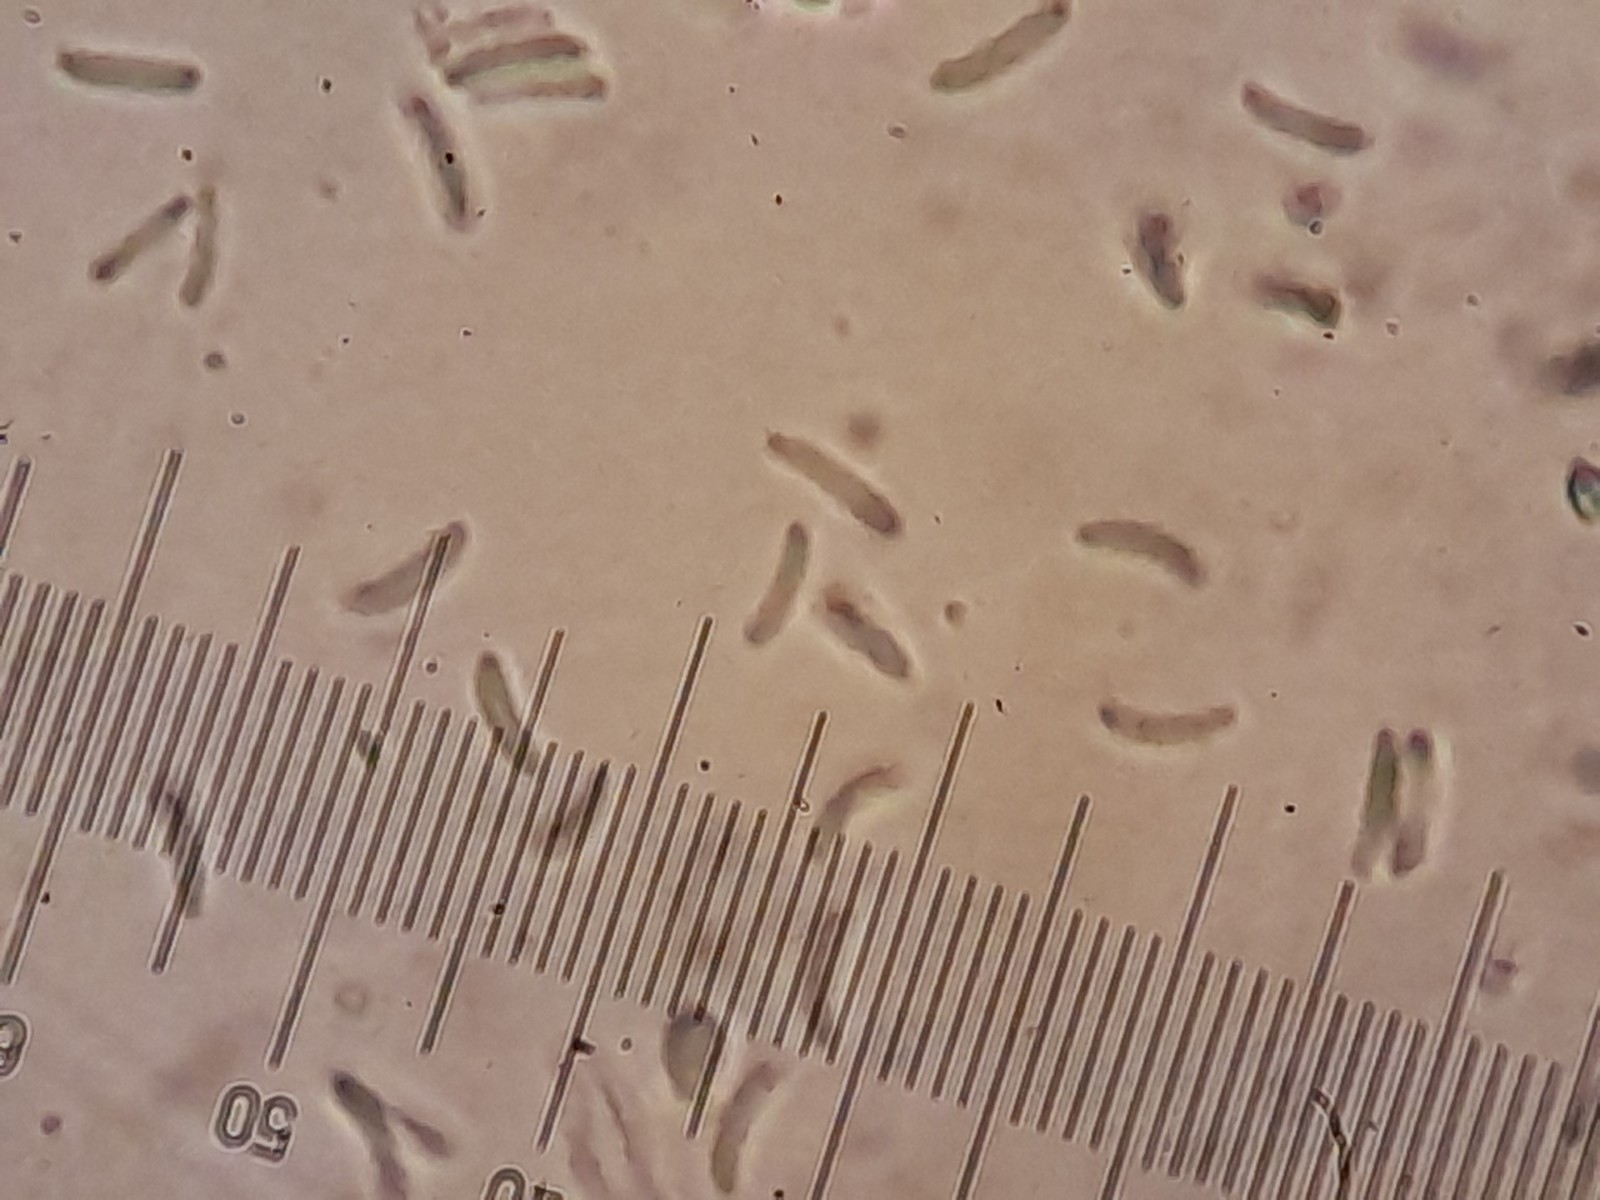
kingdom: Fungi
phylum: Ascomycota
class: Sordariomycetes
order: Diaporthales
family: Valsaceae
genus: Cytospora
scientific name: Cytospora pruinosa
